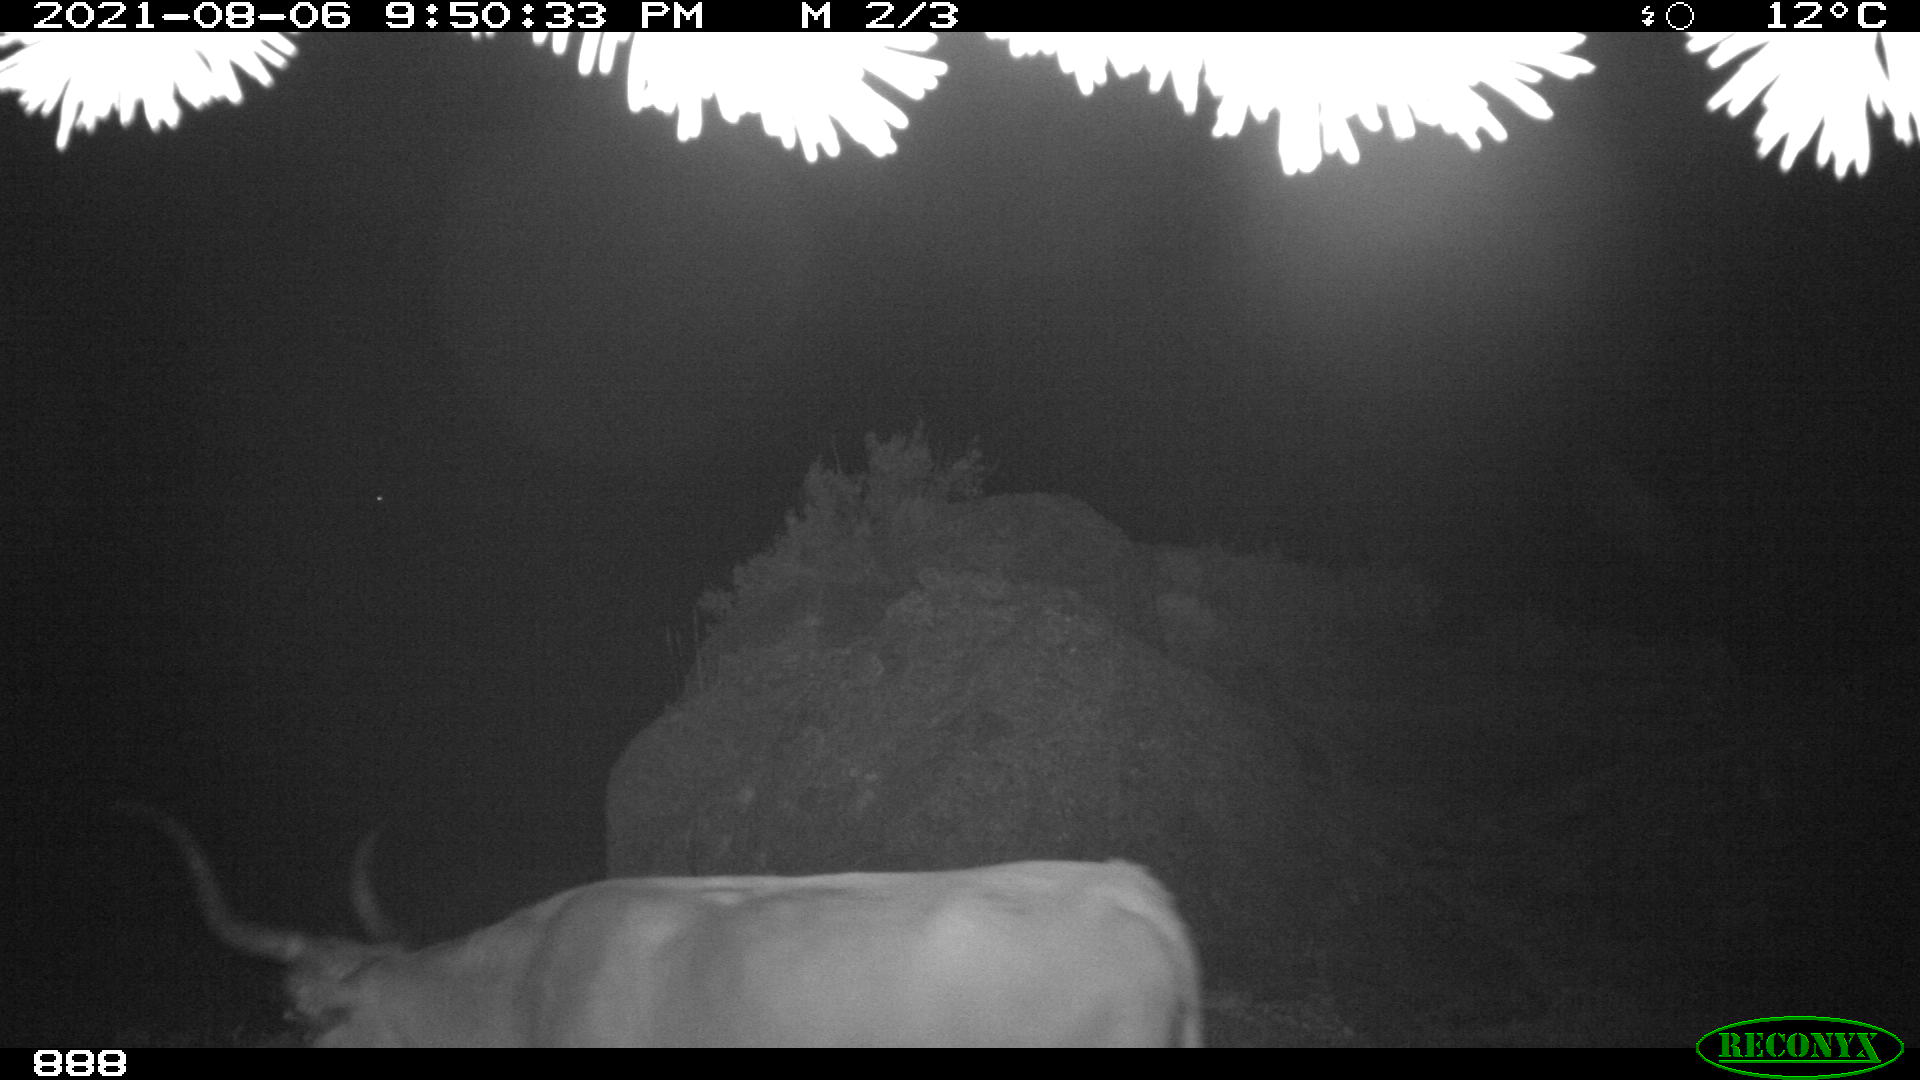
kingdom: Animalia
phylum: Chordata
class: Mammalia
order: Artiodactyla
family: Bovidae
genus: Bos
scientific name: Bos taurus
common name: Domesticated cattle
